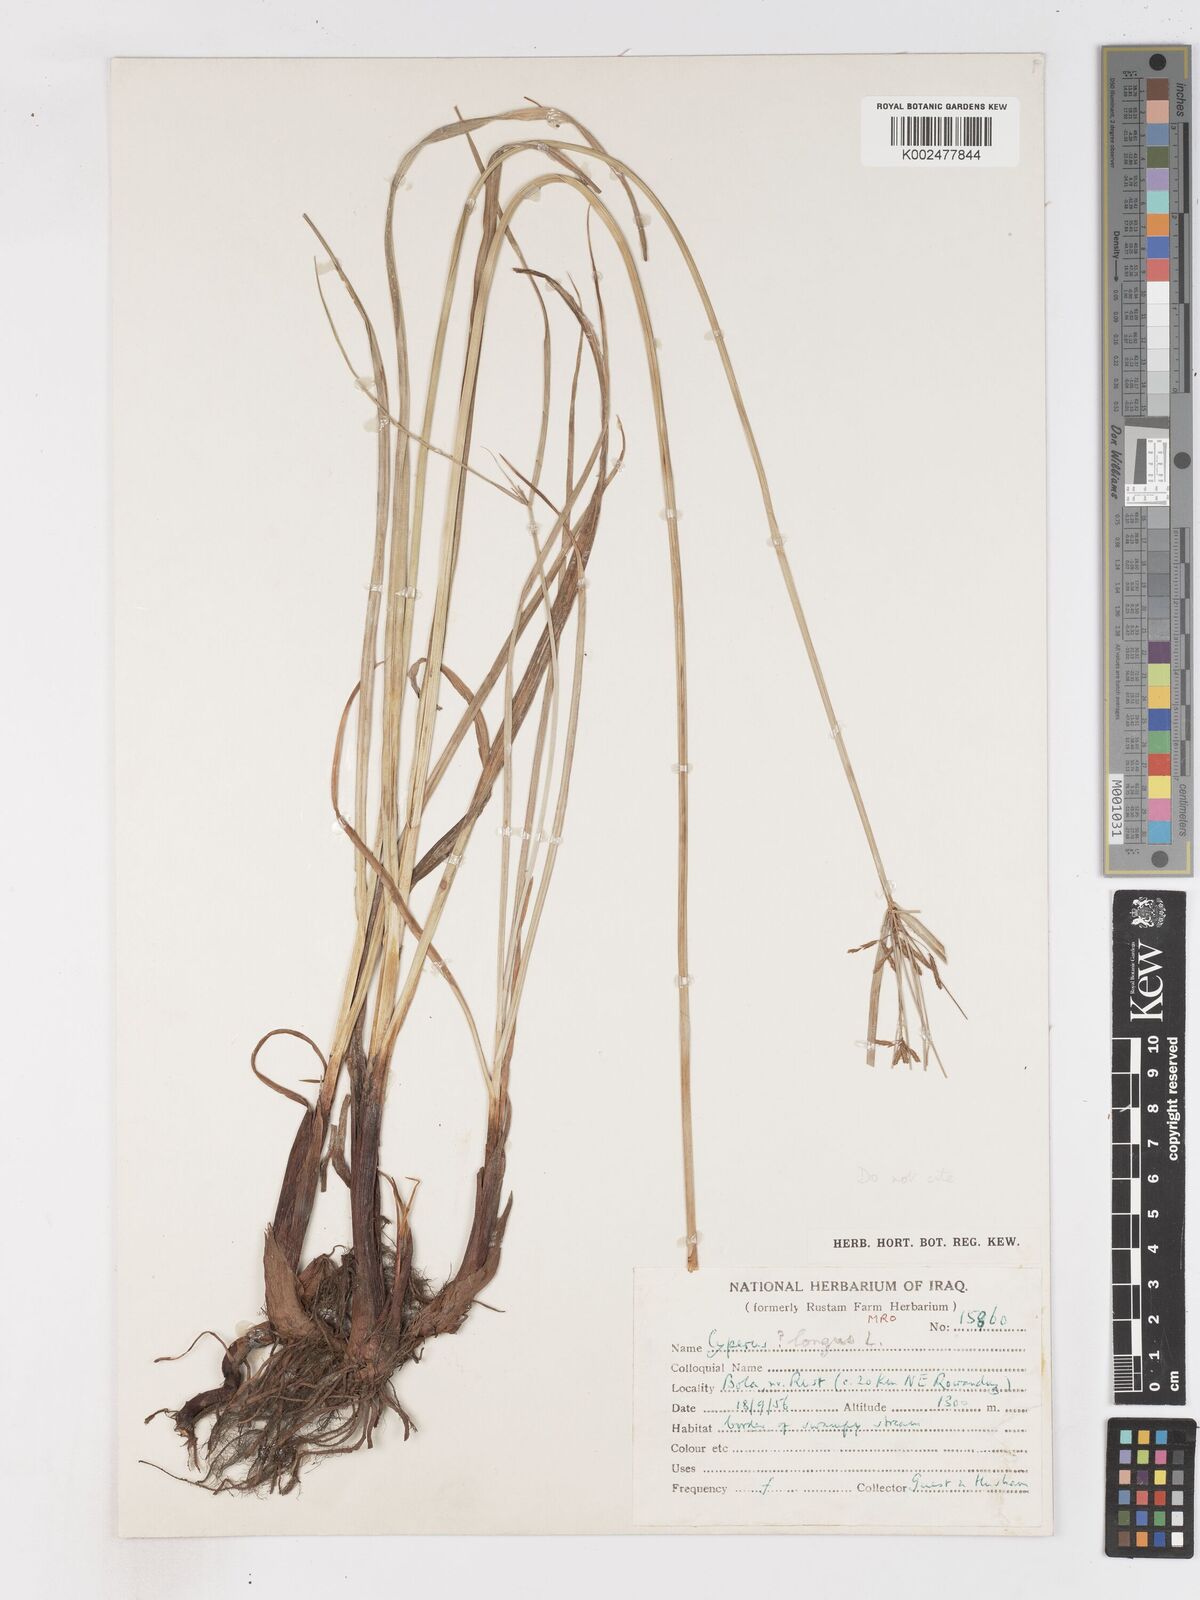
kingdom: Plantae
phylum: Tracheophyta
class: Liliopsida
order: Poales
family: Cyperaceae
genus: Cyperus
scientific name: Cyperus longus
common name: Galingale
